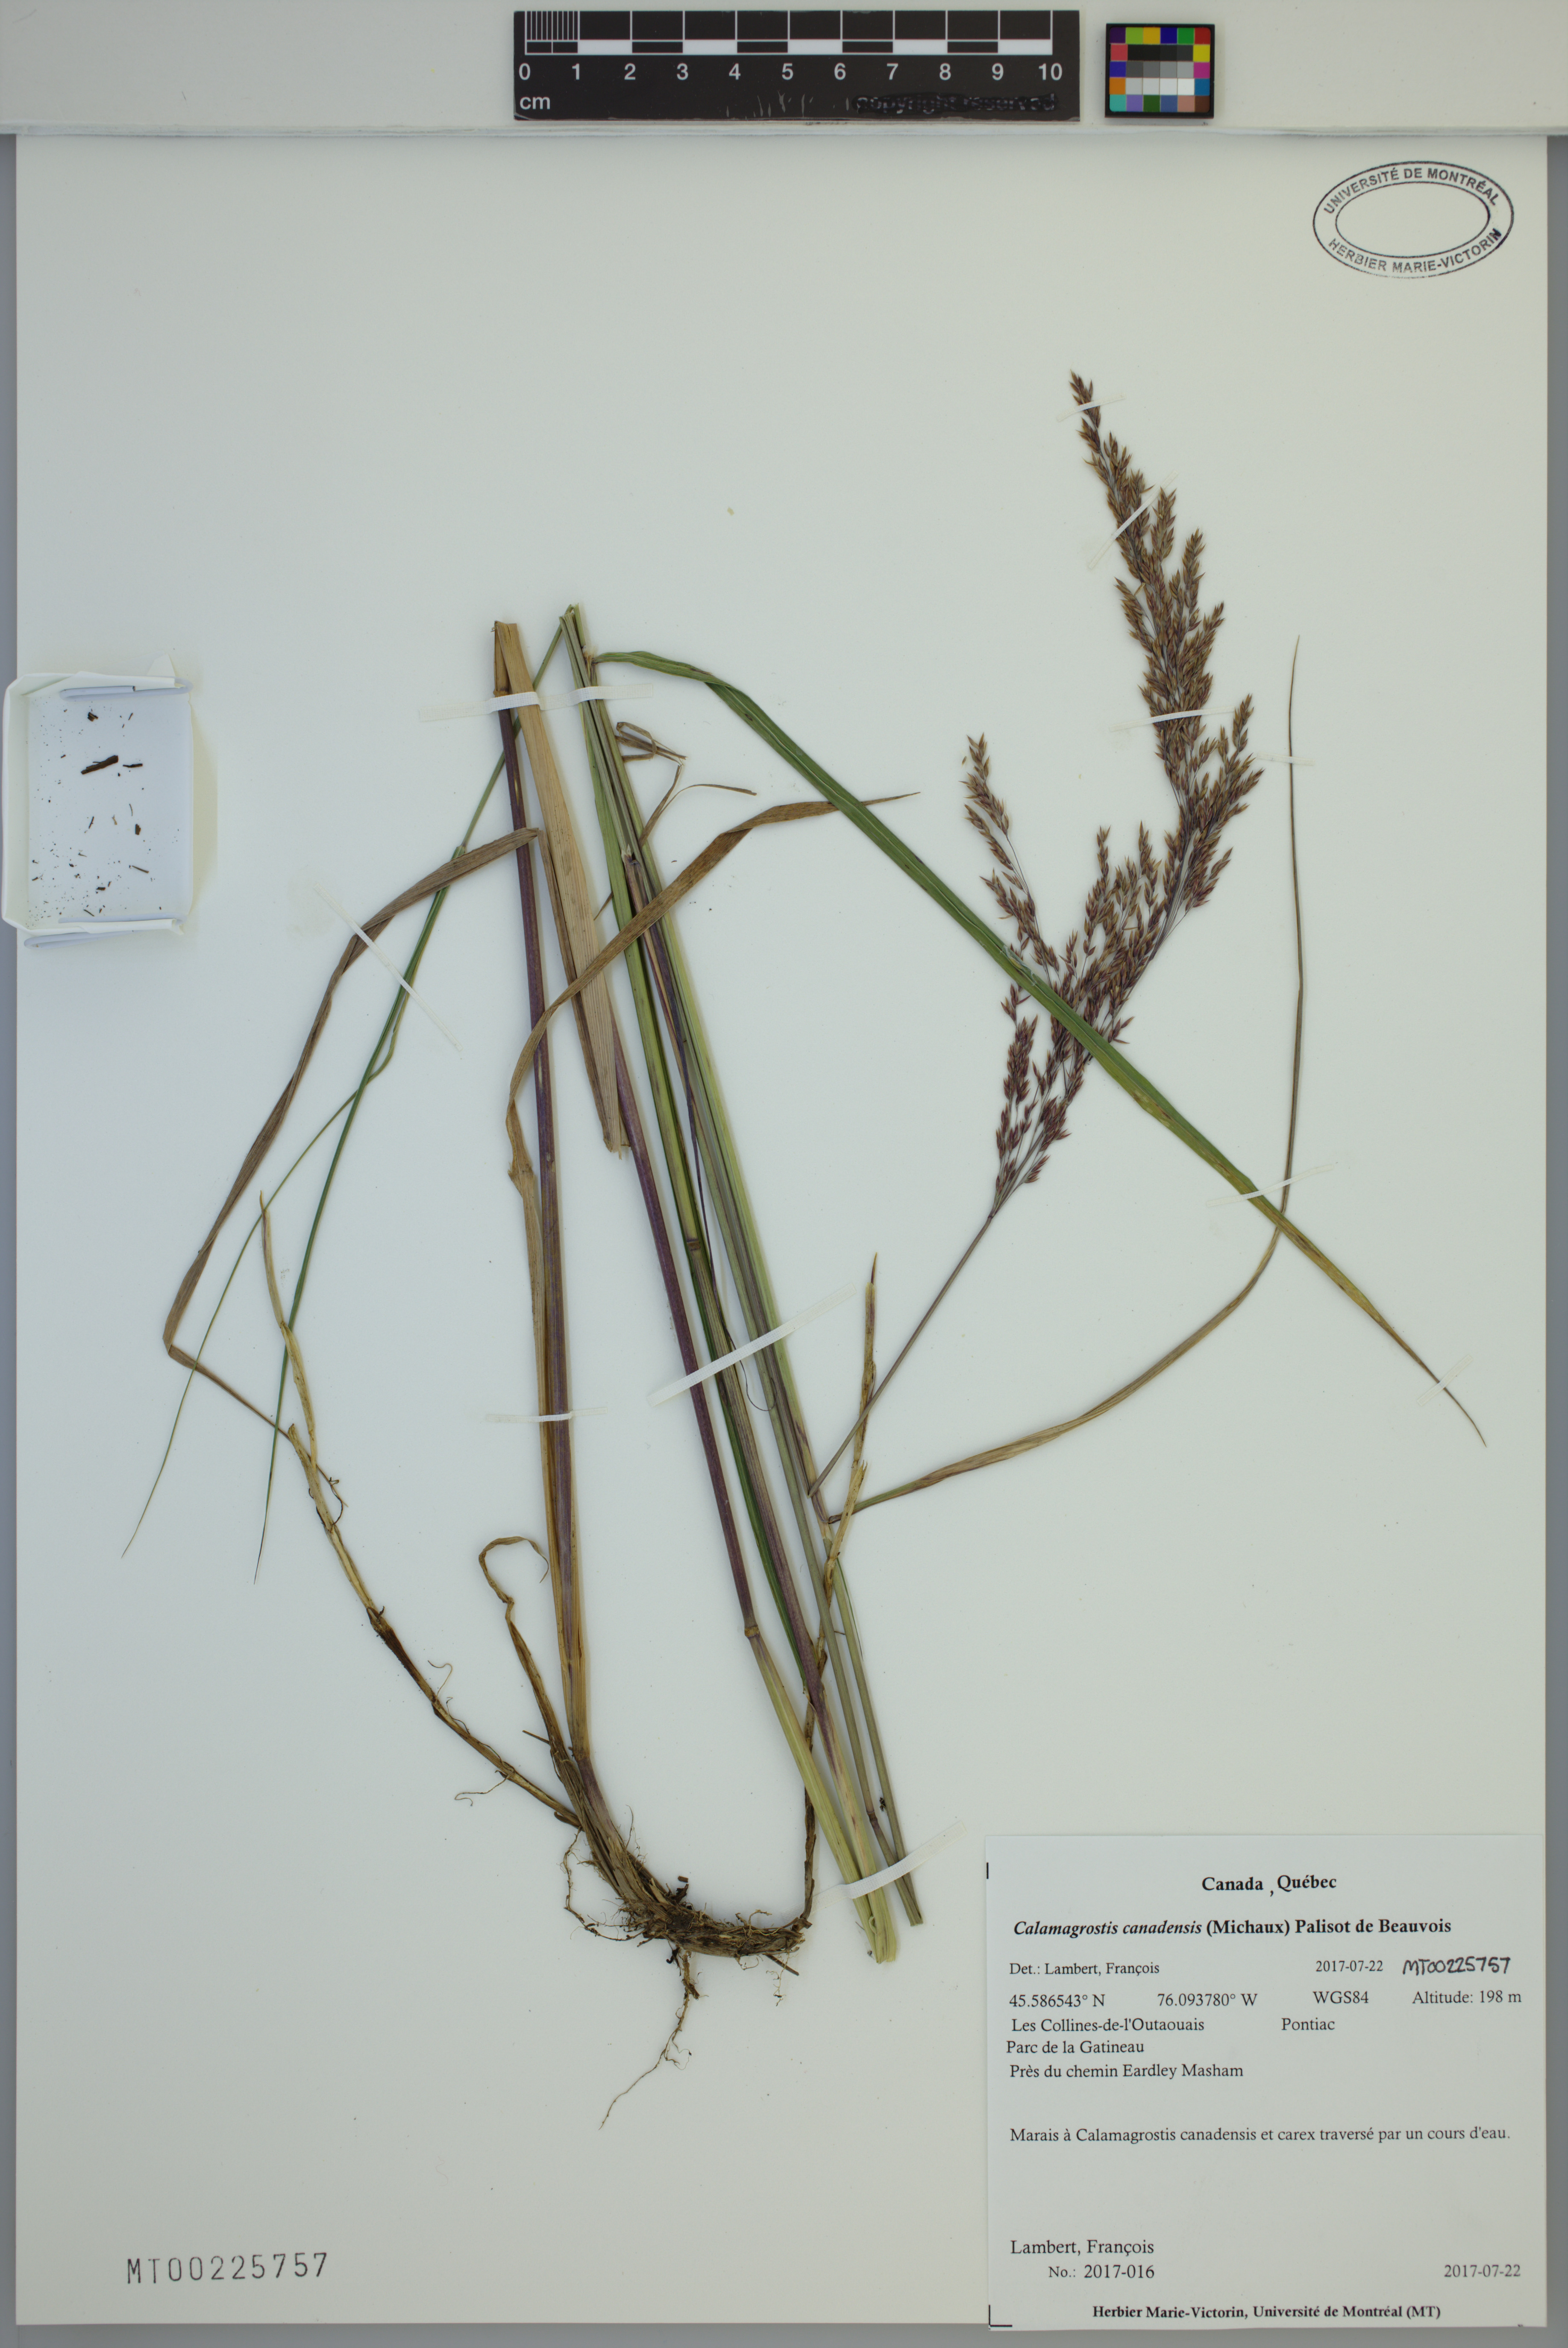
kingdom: Plantae
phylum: Tracheophyta
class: Liliopsida
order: Poales
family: Poaceae
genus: Calamagrostis
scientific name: Calamagrostis canadensis
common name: Canada bluejoint
